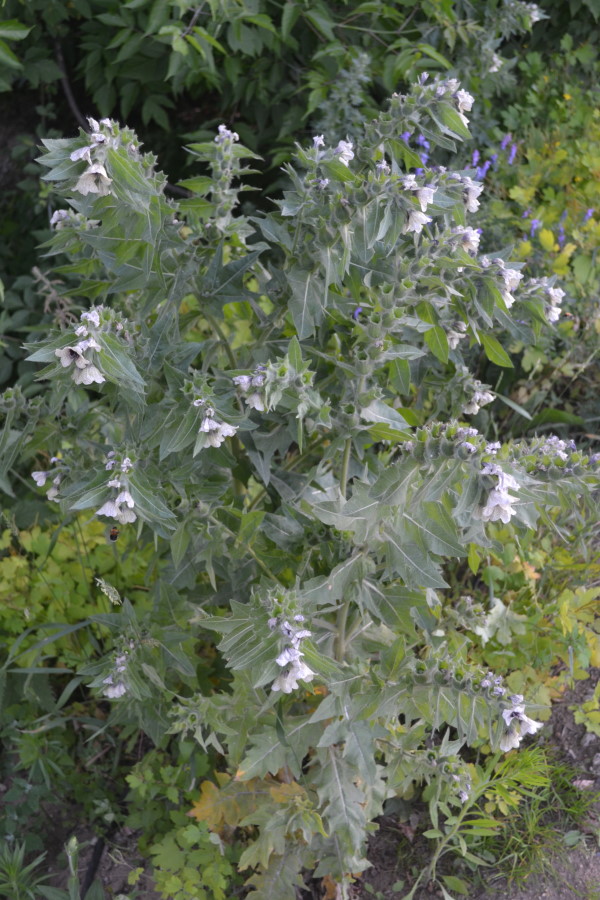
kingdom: Plantae
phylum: Tracheophyta
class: Magnoliopsida
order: Solanales
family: Solanaceae
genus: Hyoscyamus
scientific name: Hyoscyamus niger
